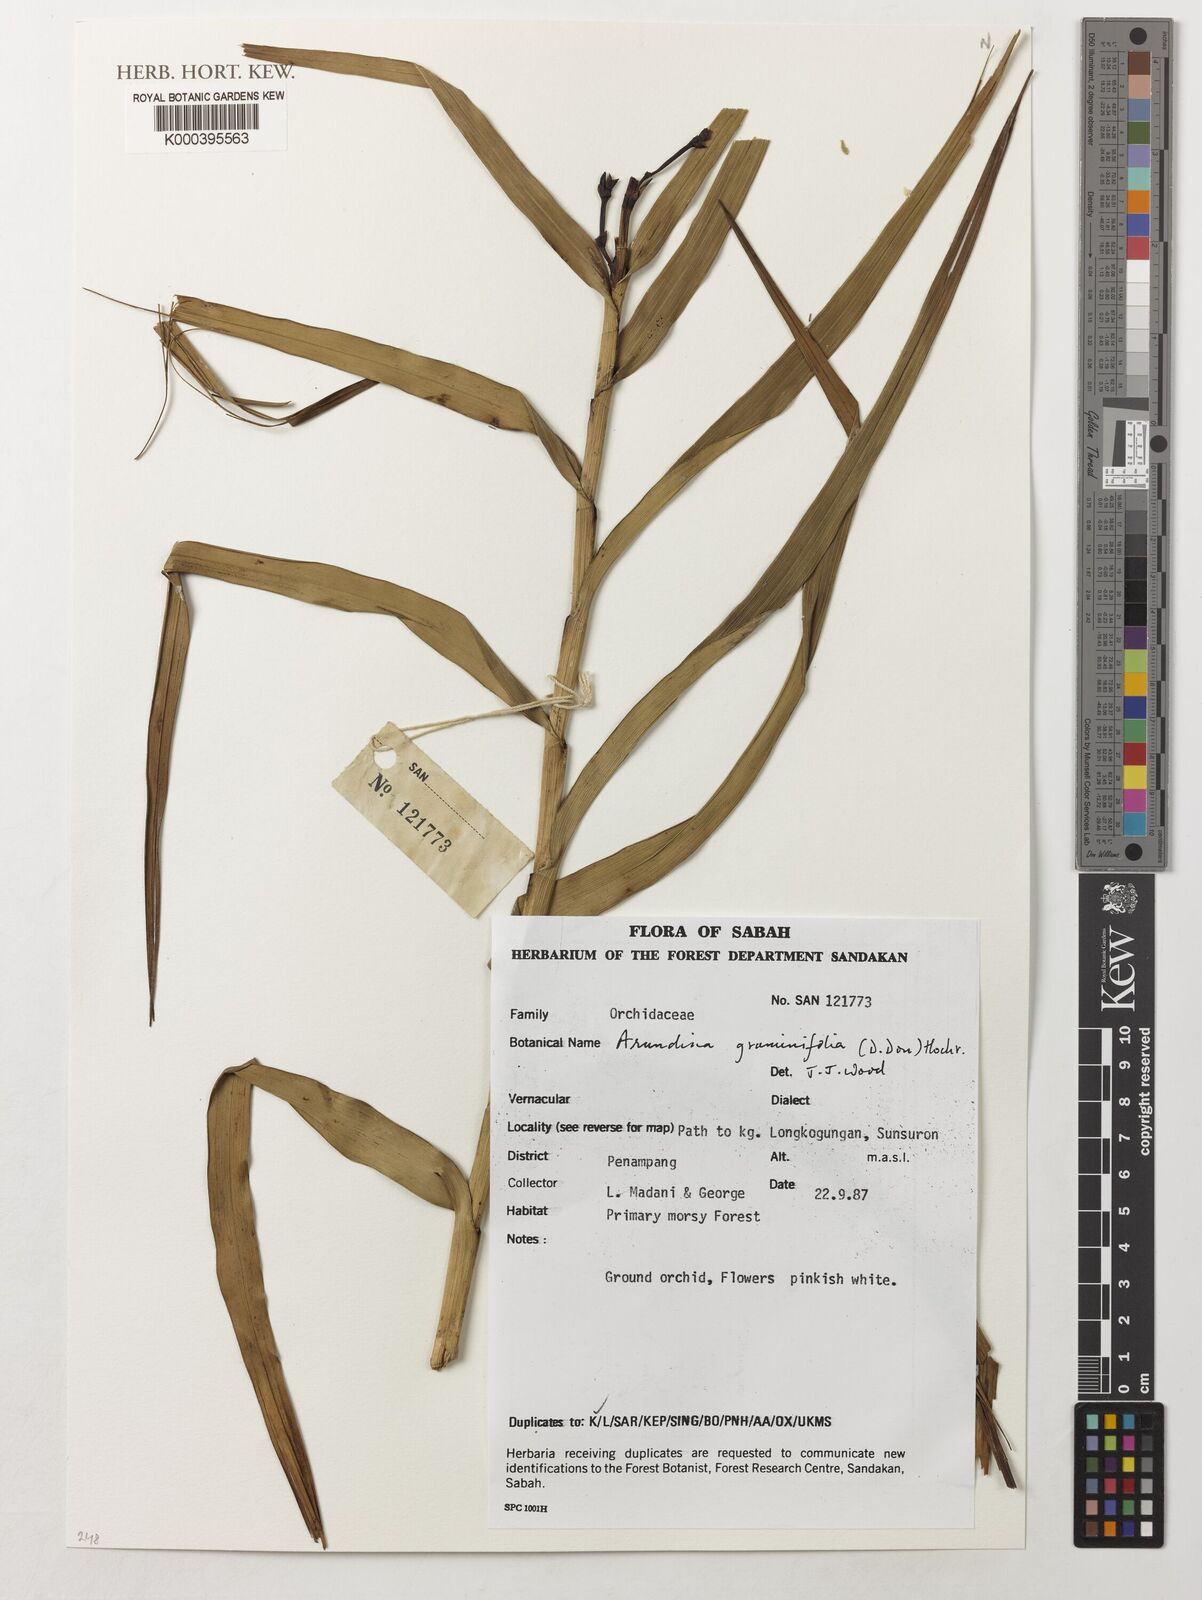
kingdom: Plantae
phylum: Tracheophyta
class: Liliopsida
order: Asparagales
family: Orchidaceae
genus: Arundina
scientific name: Arundina graminifolia
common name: Bamboo orchid
